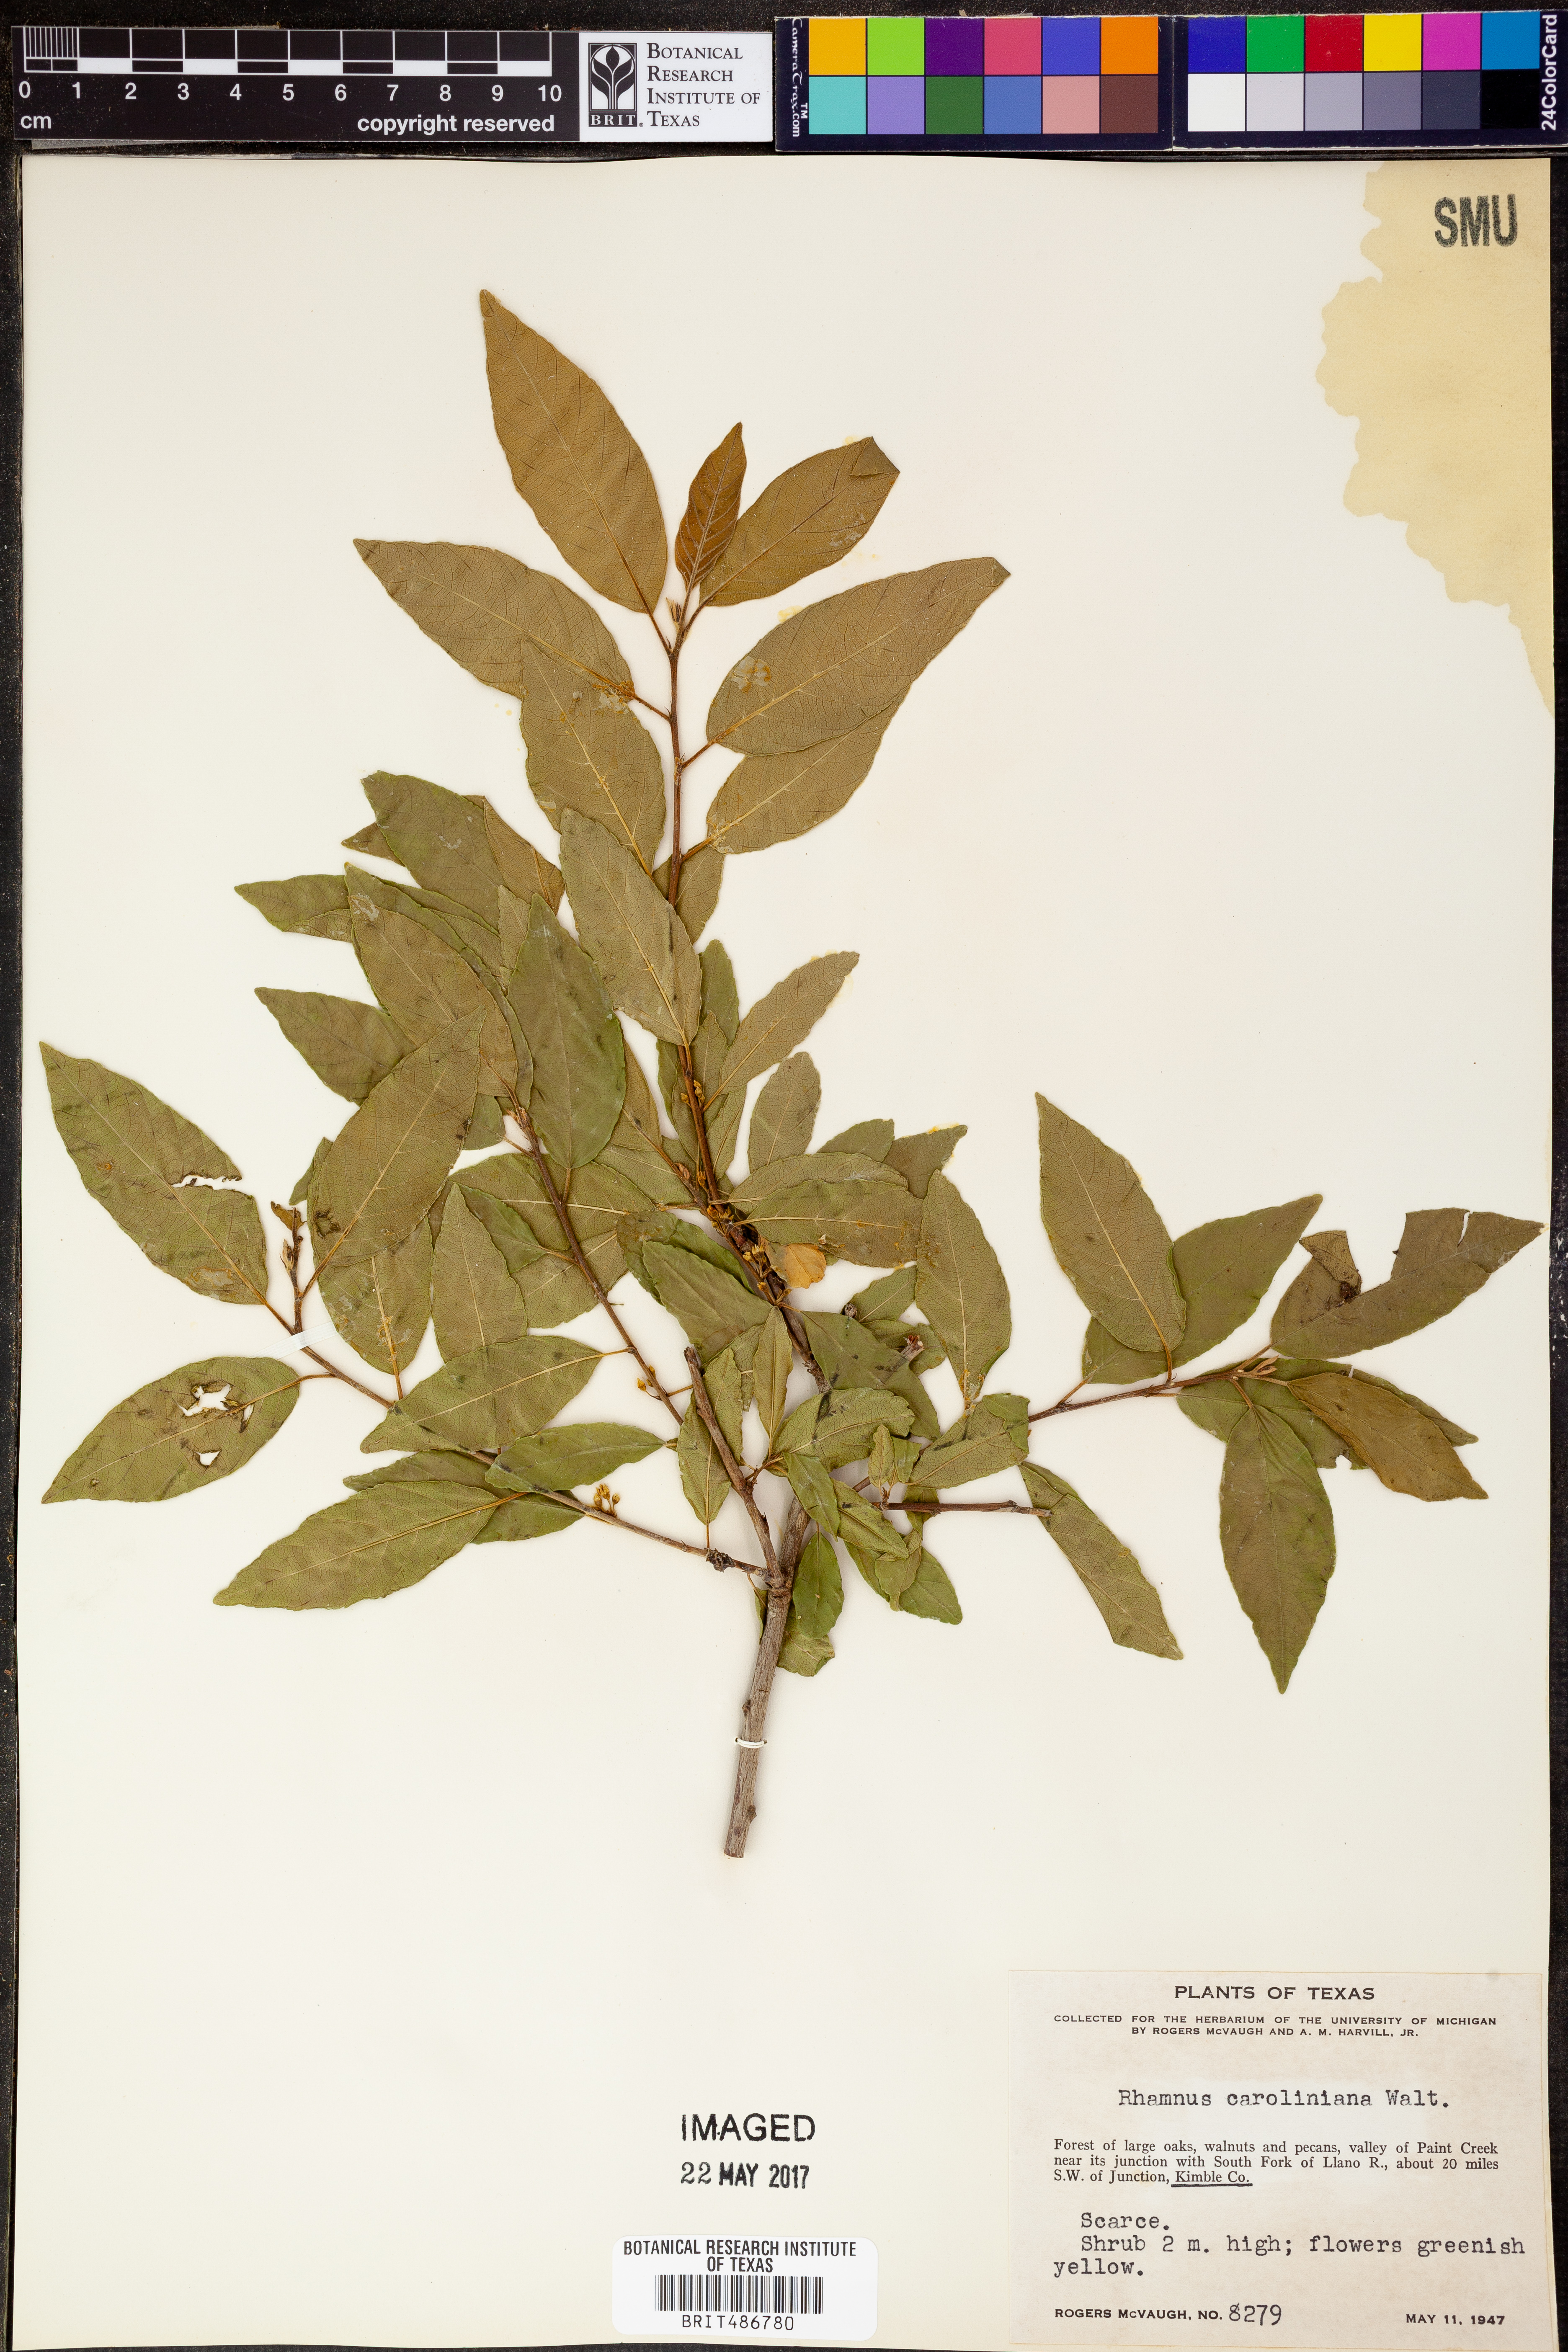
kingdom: Plantae
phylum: Tracheophyta
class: Magnoliopsida
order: Rosales
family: Rhamnaceae
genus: Frangula
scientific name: Frangula caroliniana
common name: Carolina buckthorn
